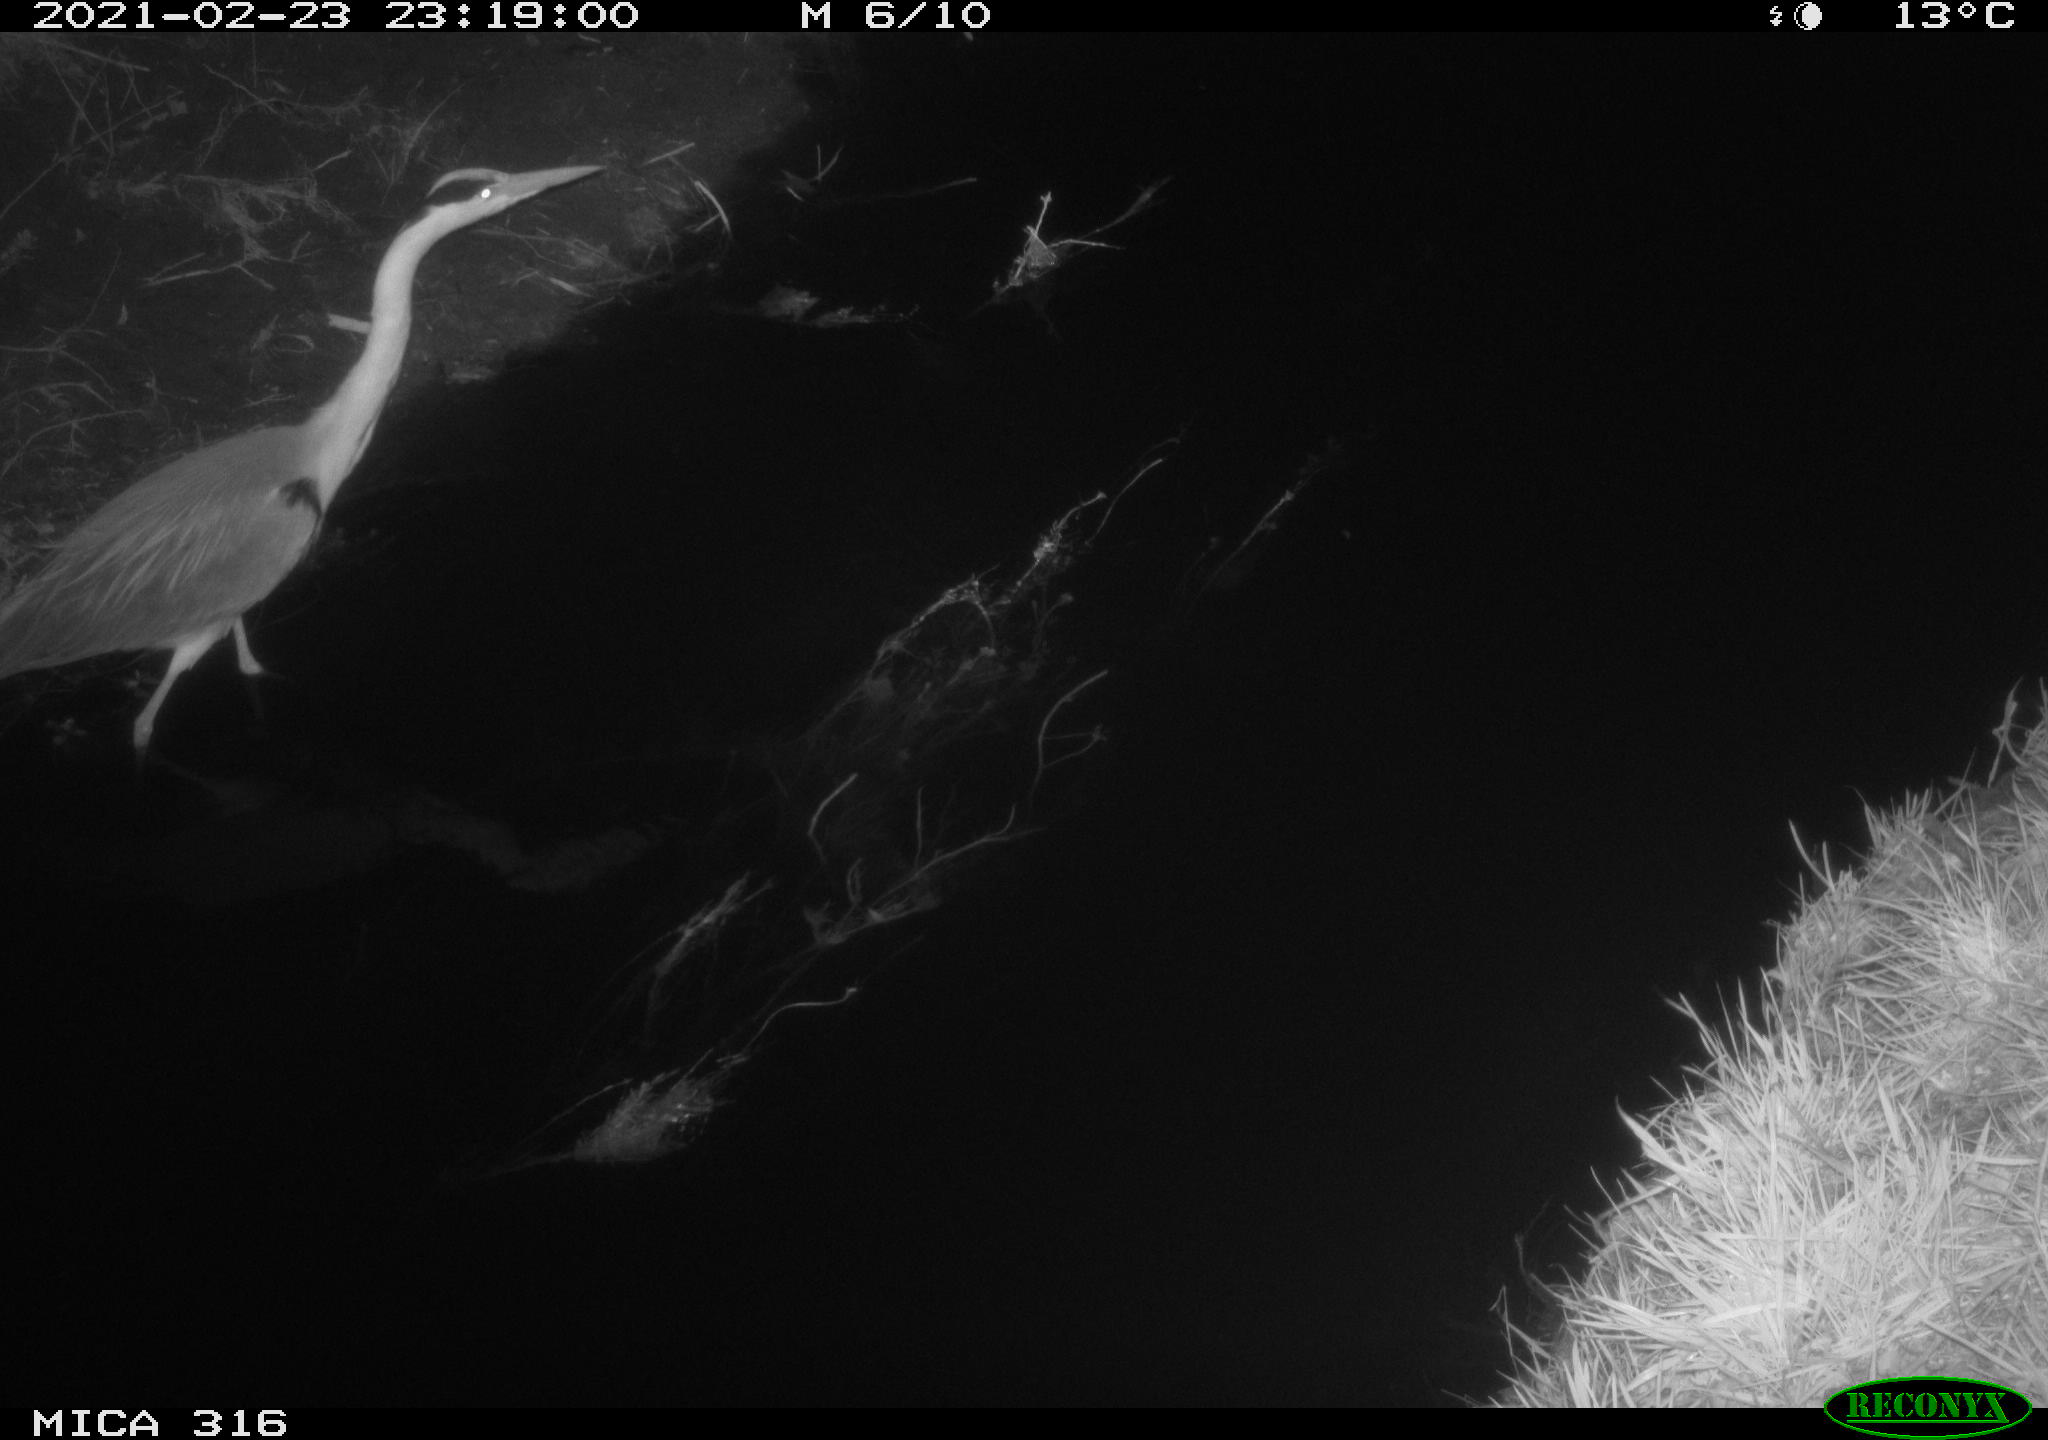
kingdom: Animalia
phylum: Chordata
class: Aves
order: Pelecaniformes
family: Ardeidae
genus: Ardea
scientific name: Ardea
